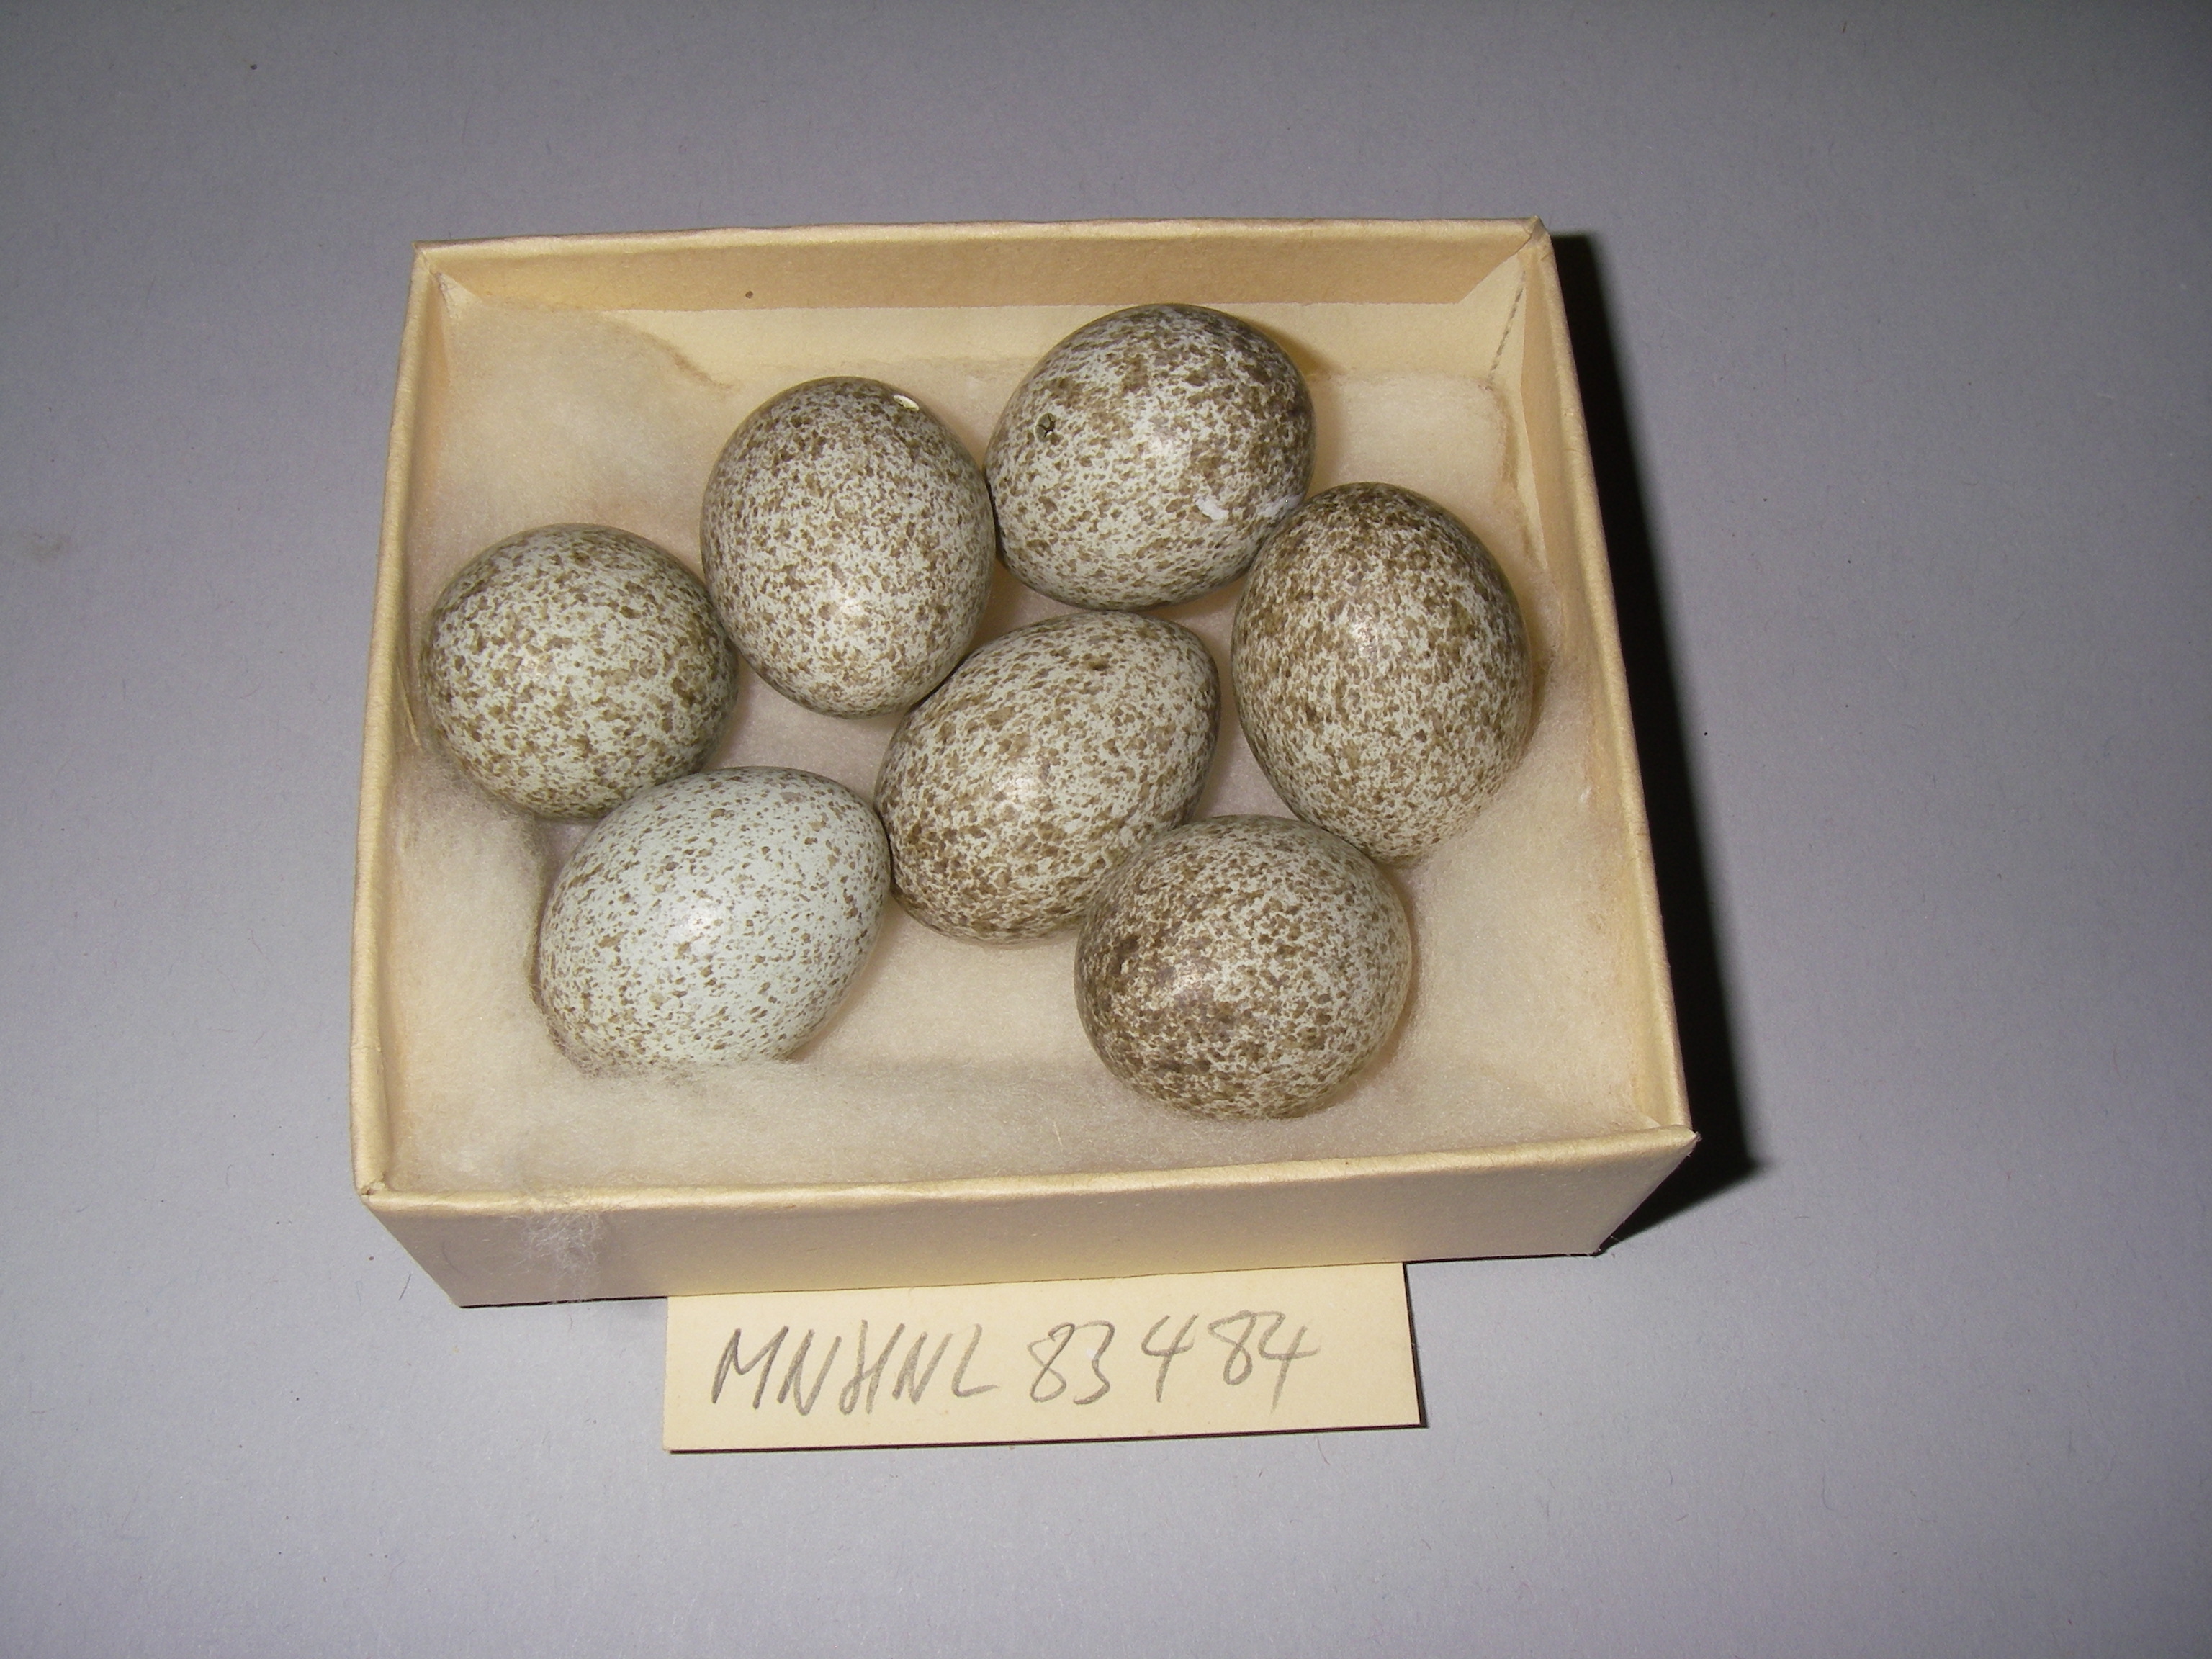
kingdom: Animalia
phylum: Chordata
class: Aves
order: Passeriformes
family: Corvidae
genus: Pica
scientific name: Pica pica
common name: Eurasian magpie
